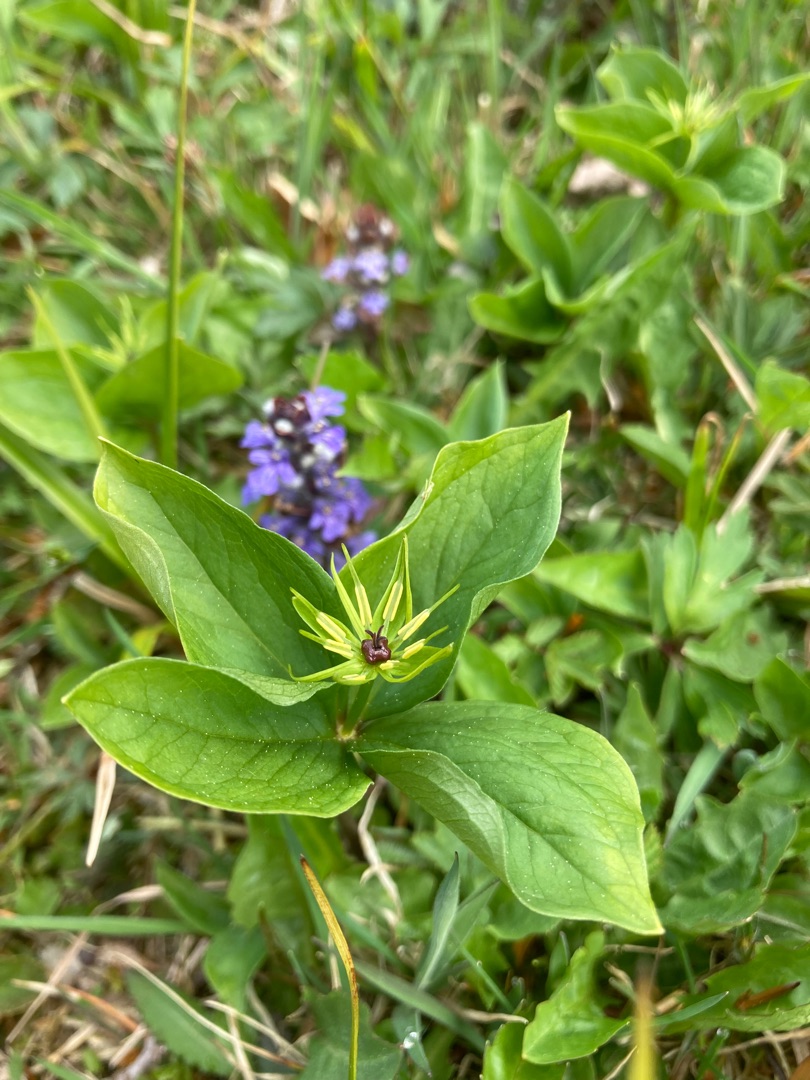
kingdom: Plantae
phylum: Tracheophyta
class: Liliopsida
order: Liliales
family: Melanthiaceae
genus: Paris
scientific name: Paris quadrifolia
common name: Firblad
